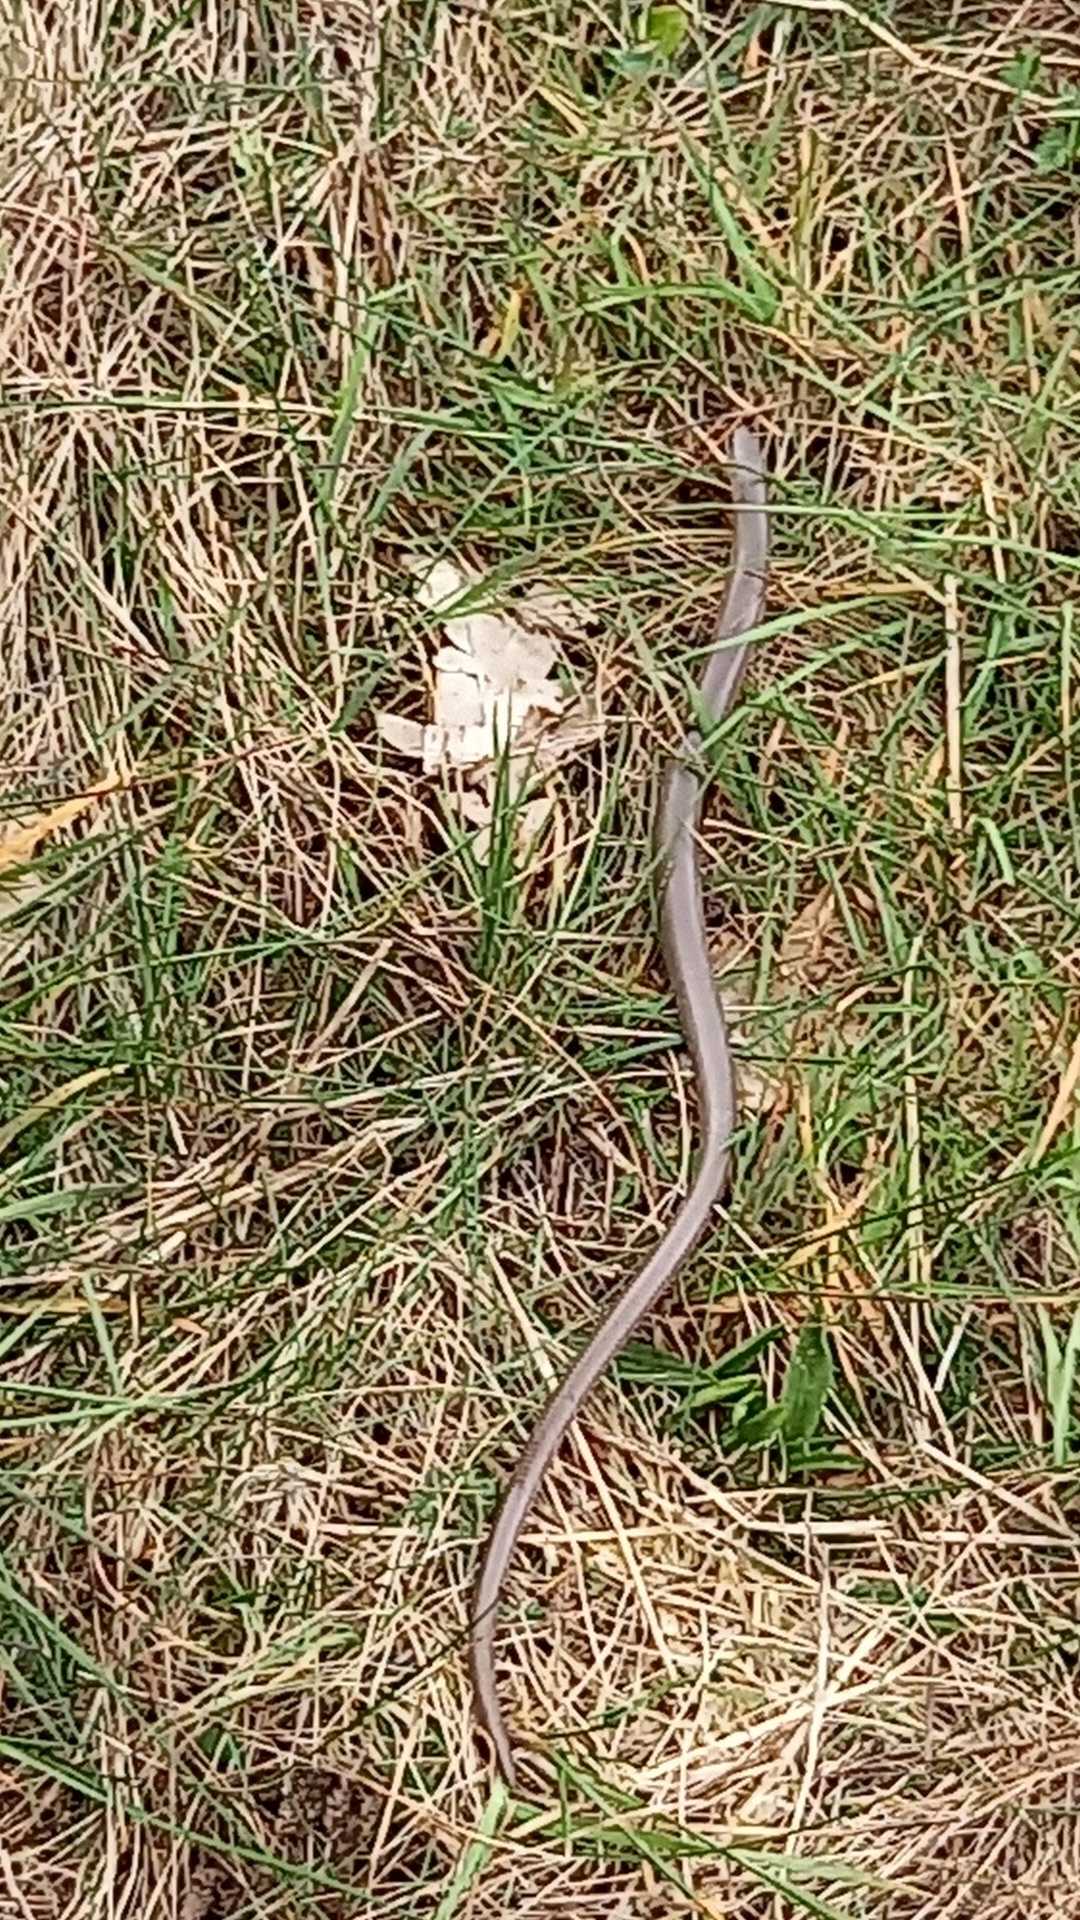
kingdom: Animalia
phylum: Chordata
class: Squamata
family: Anguidae
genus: Anguis
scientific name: Anguis fragilis
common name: Stålorm
